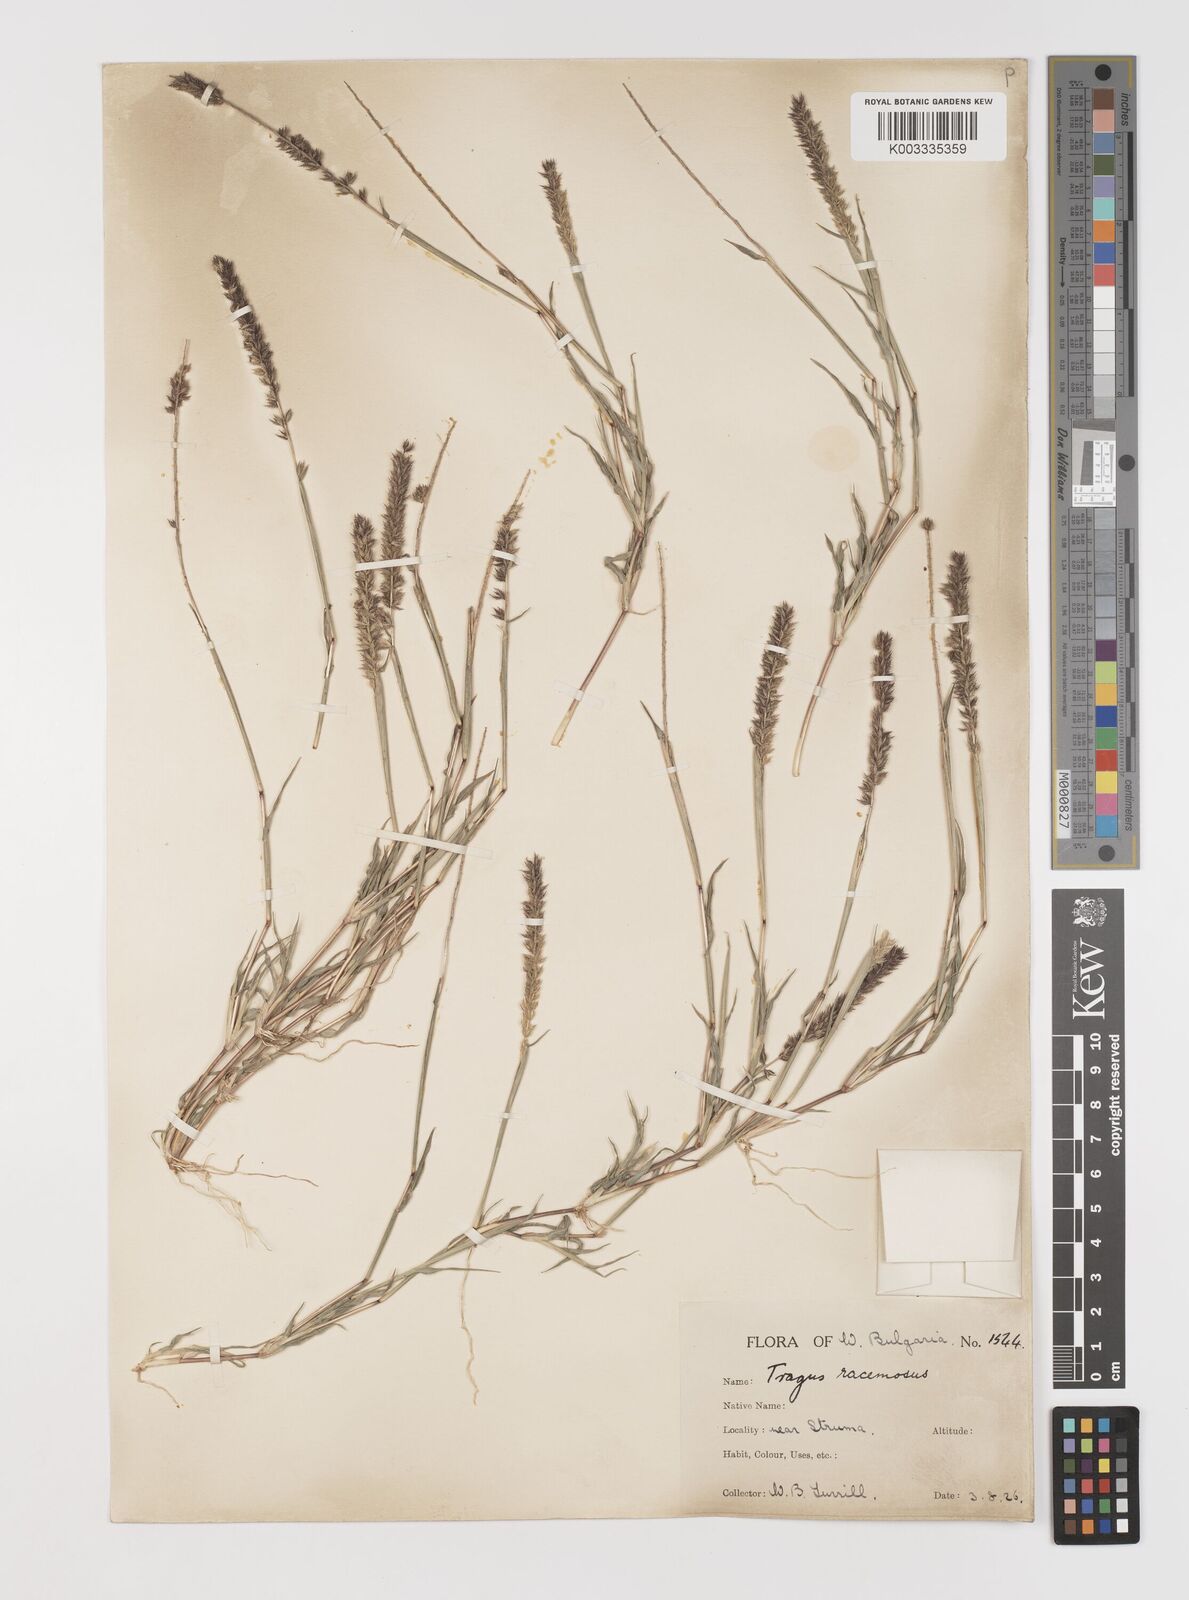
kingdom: Plantae
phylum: Tracheophyta
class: Liliopsida
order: Poales
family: Poaceae
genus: Tragus
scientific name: Tragus racemosus
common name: European bur-grass
